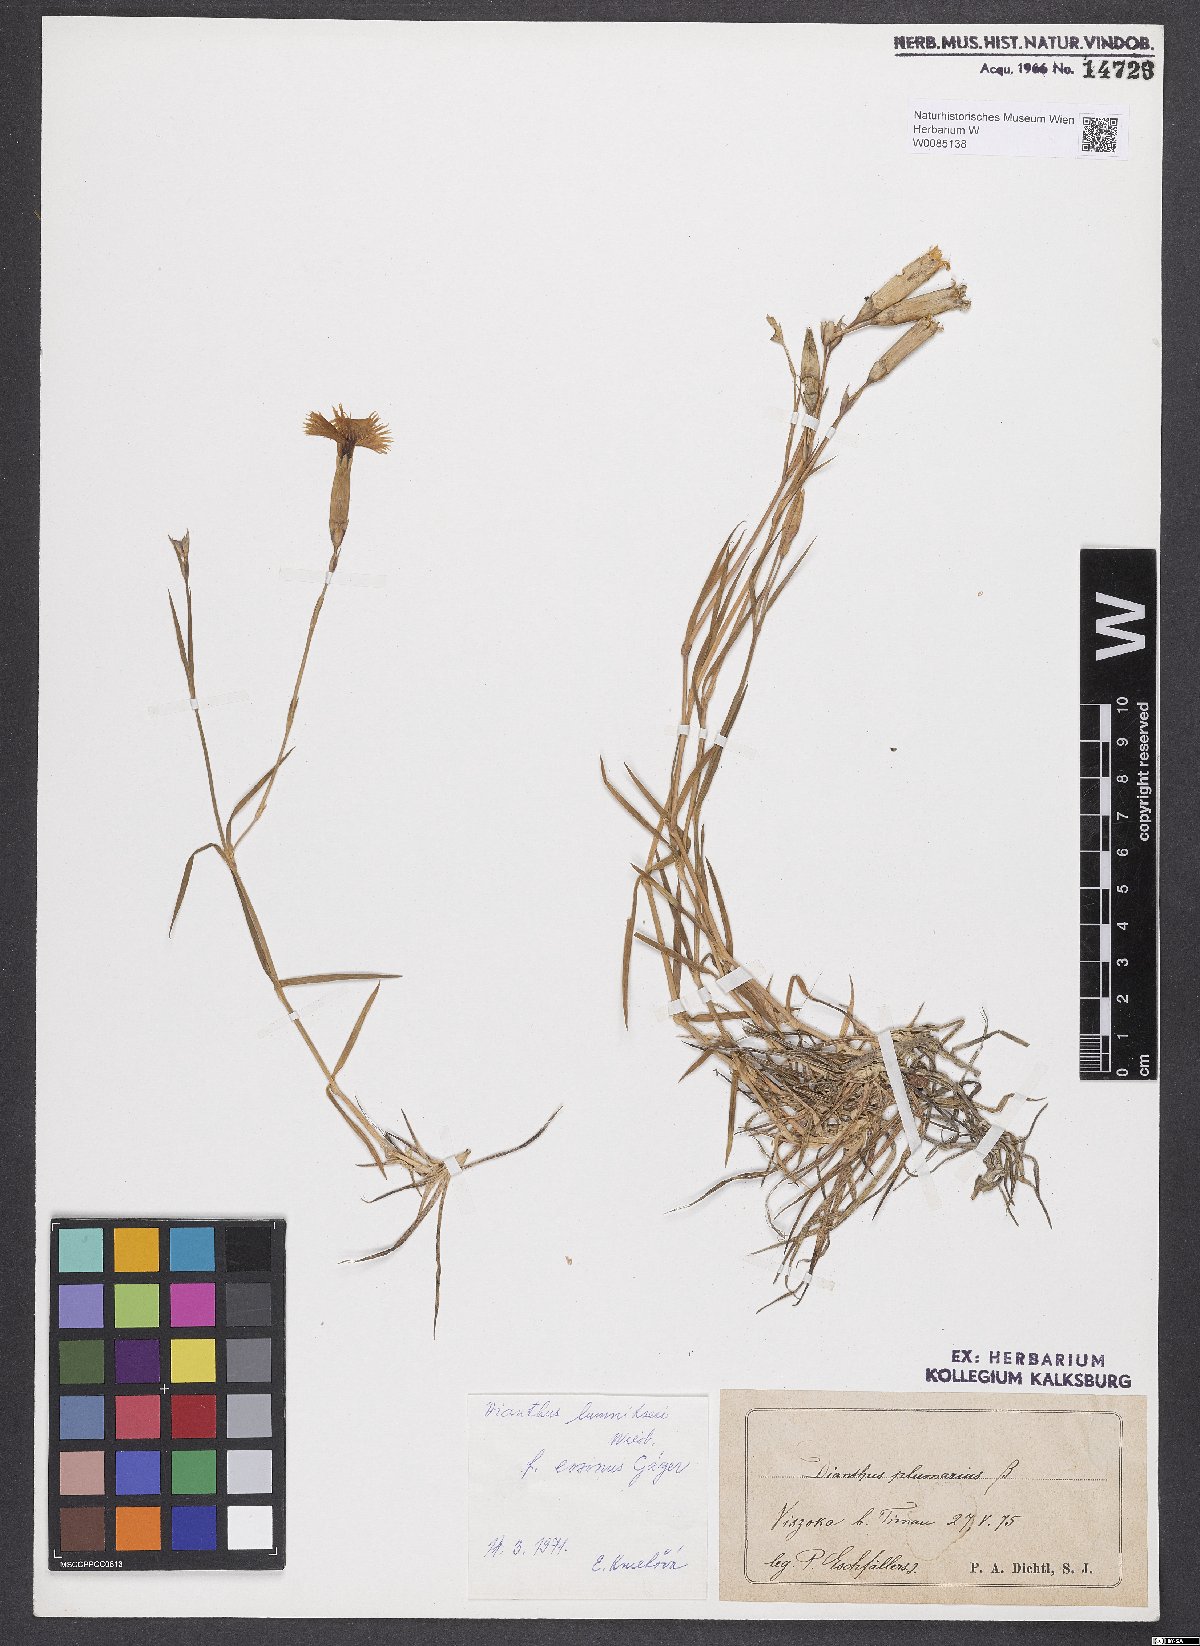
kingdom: Plantae
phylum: Tracheophyta
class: Magnoliopsida
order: Caryophyllales
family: Caryophyllaceae
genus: Dianthus
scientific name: Dianthus praecox
